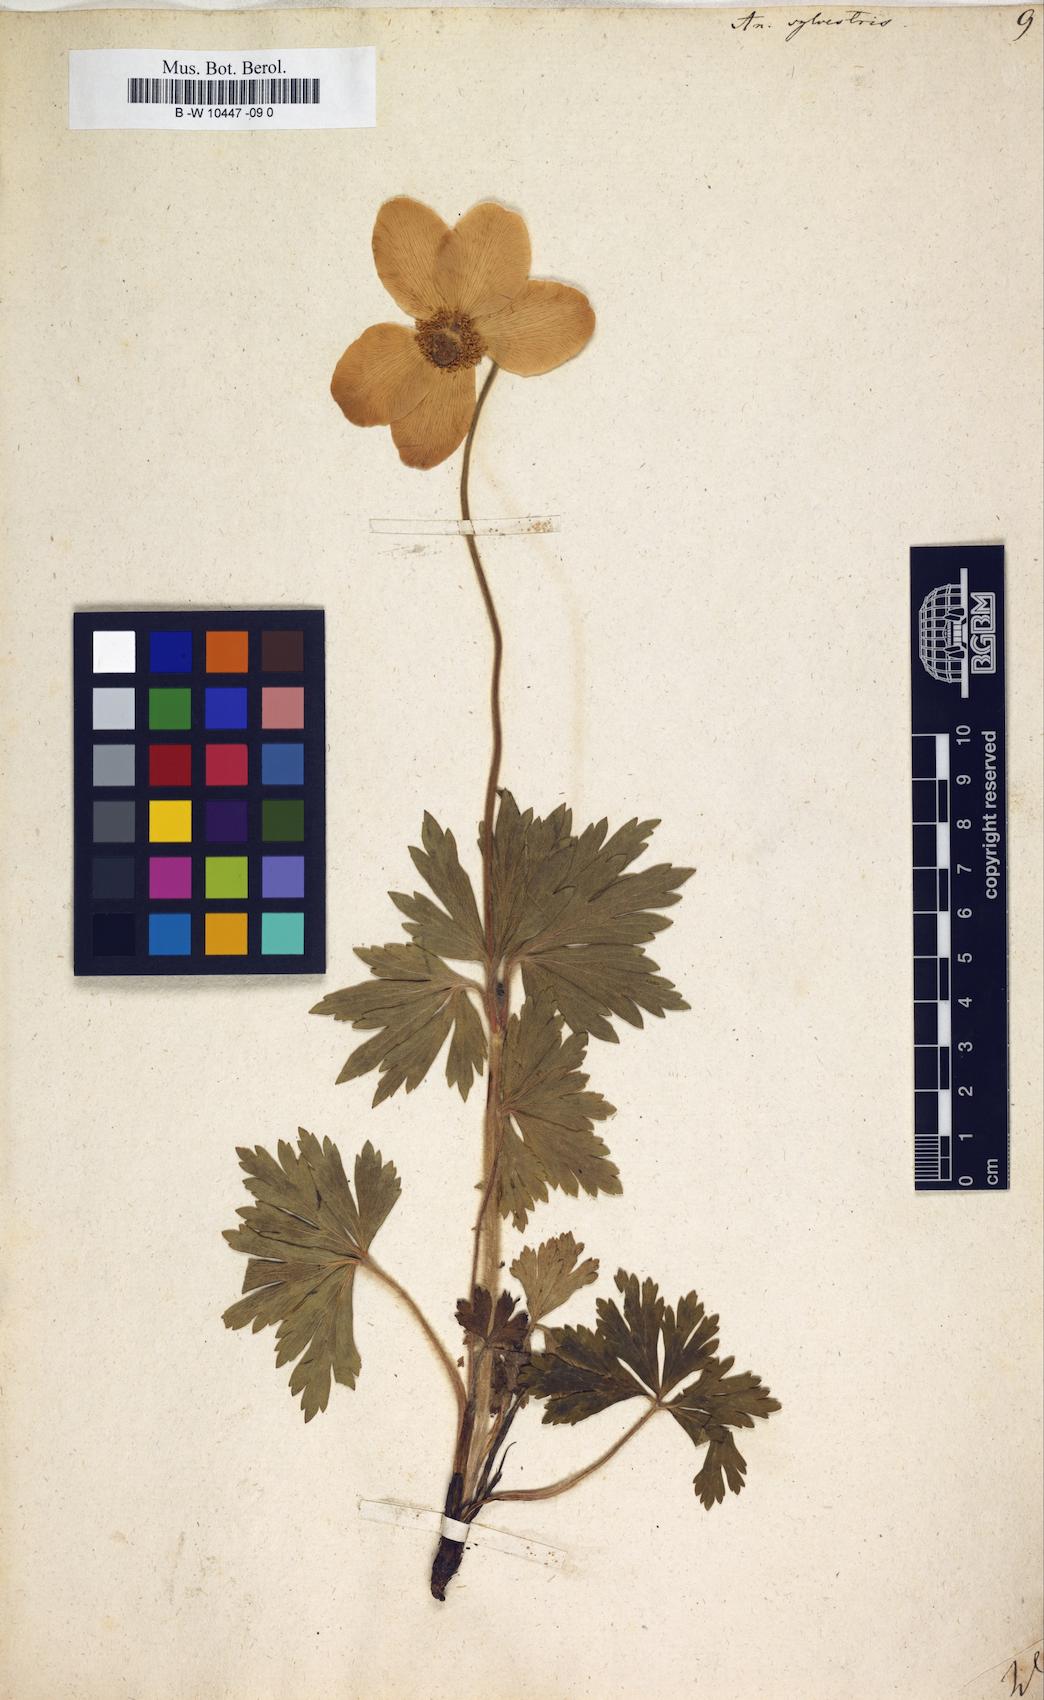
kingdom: Plantae
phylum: Tracheophyta
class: Magnoliopsida
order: Ranunculales
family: Ranunculaceae
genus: Anemone
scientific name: Anemone sylvestris
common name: Snowdrop anemone
